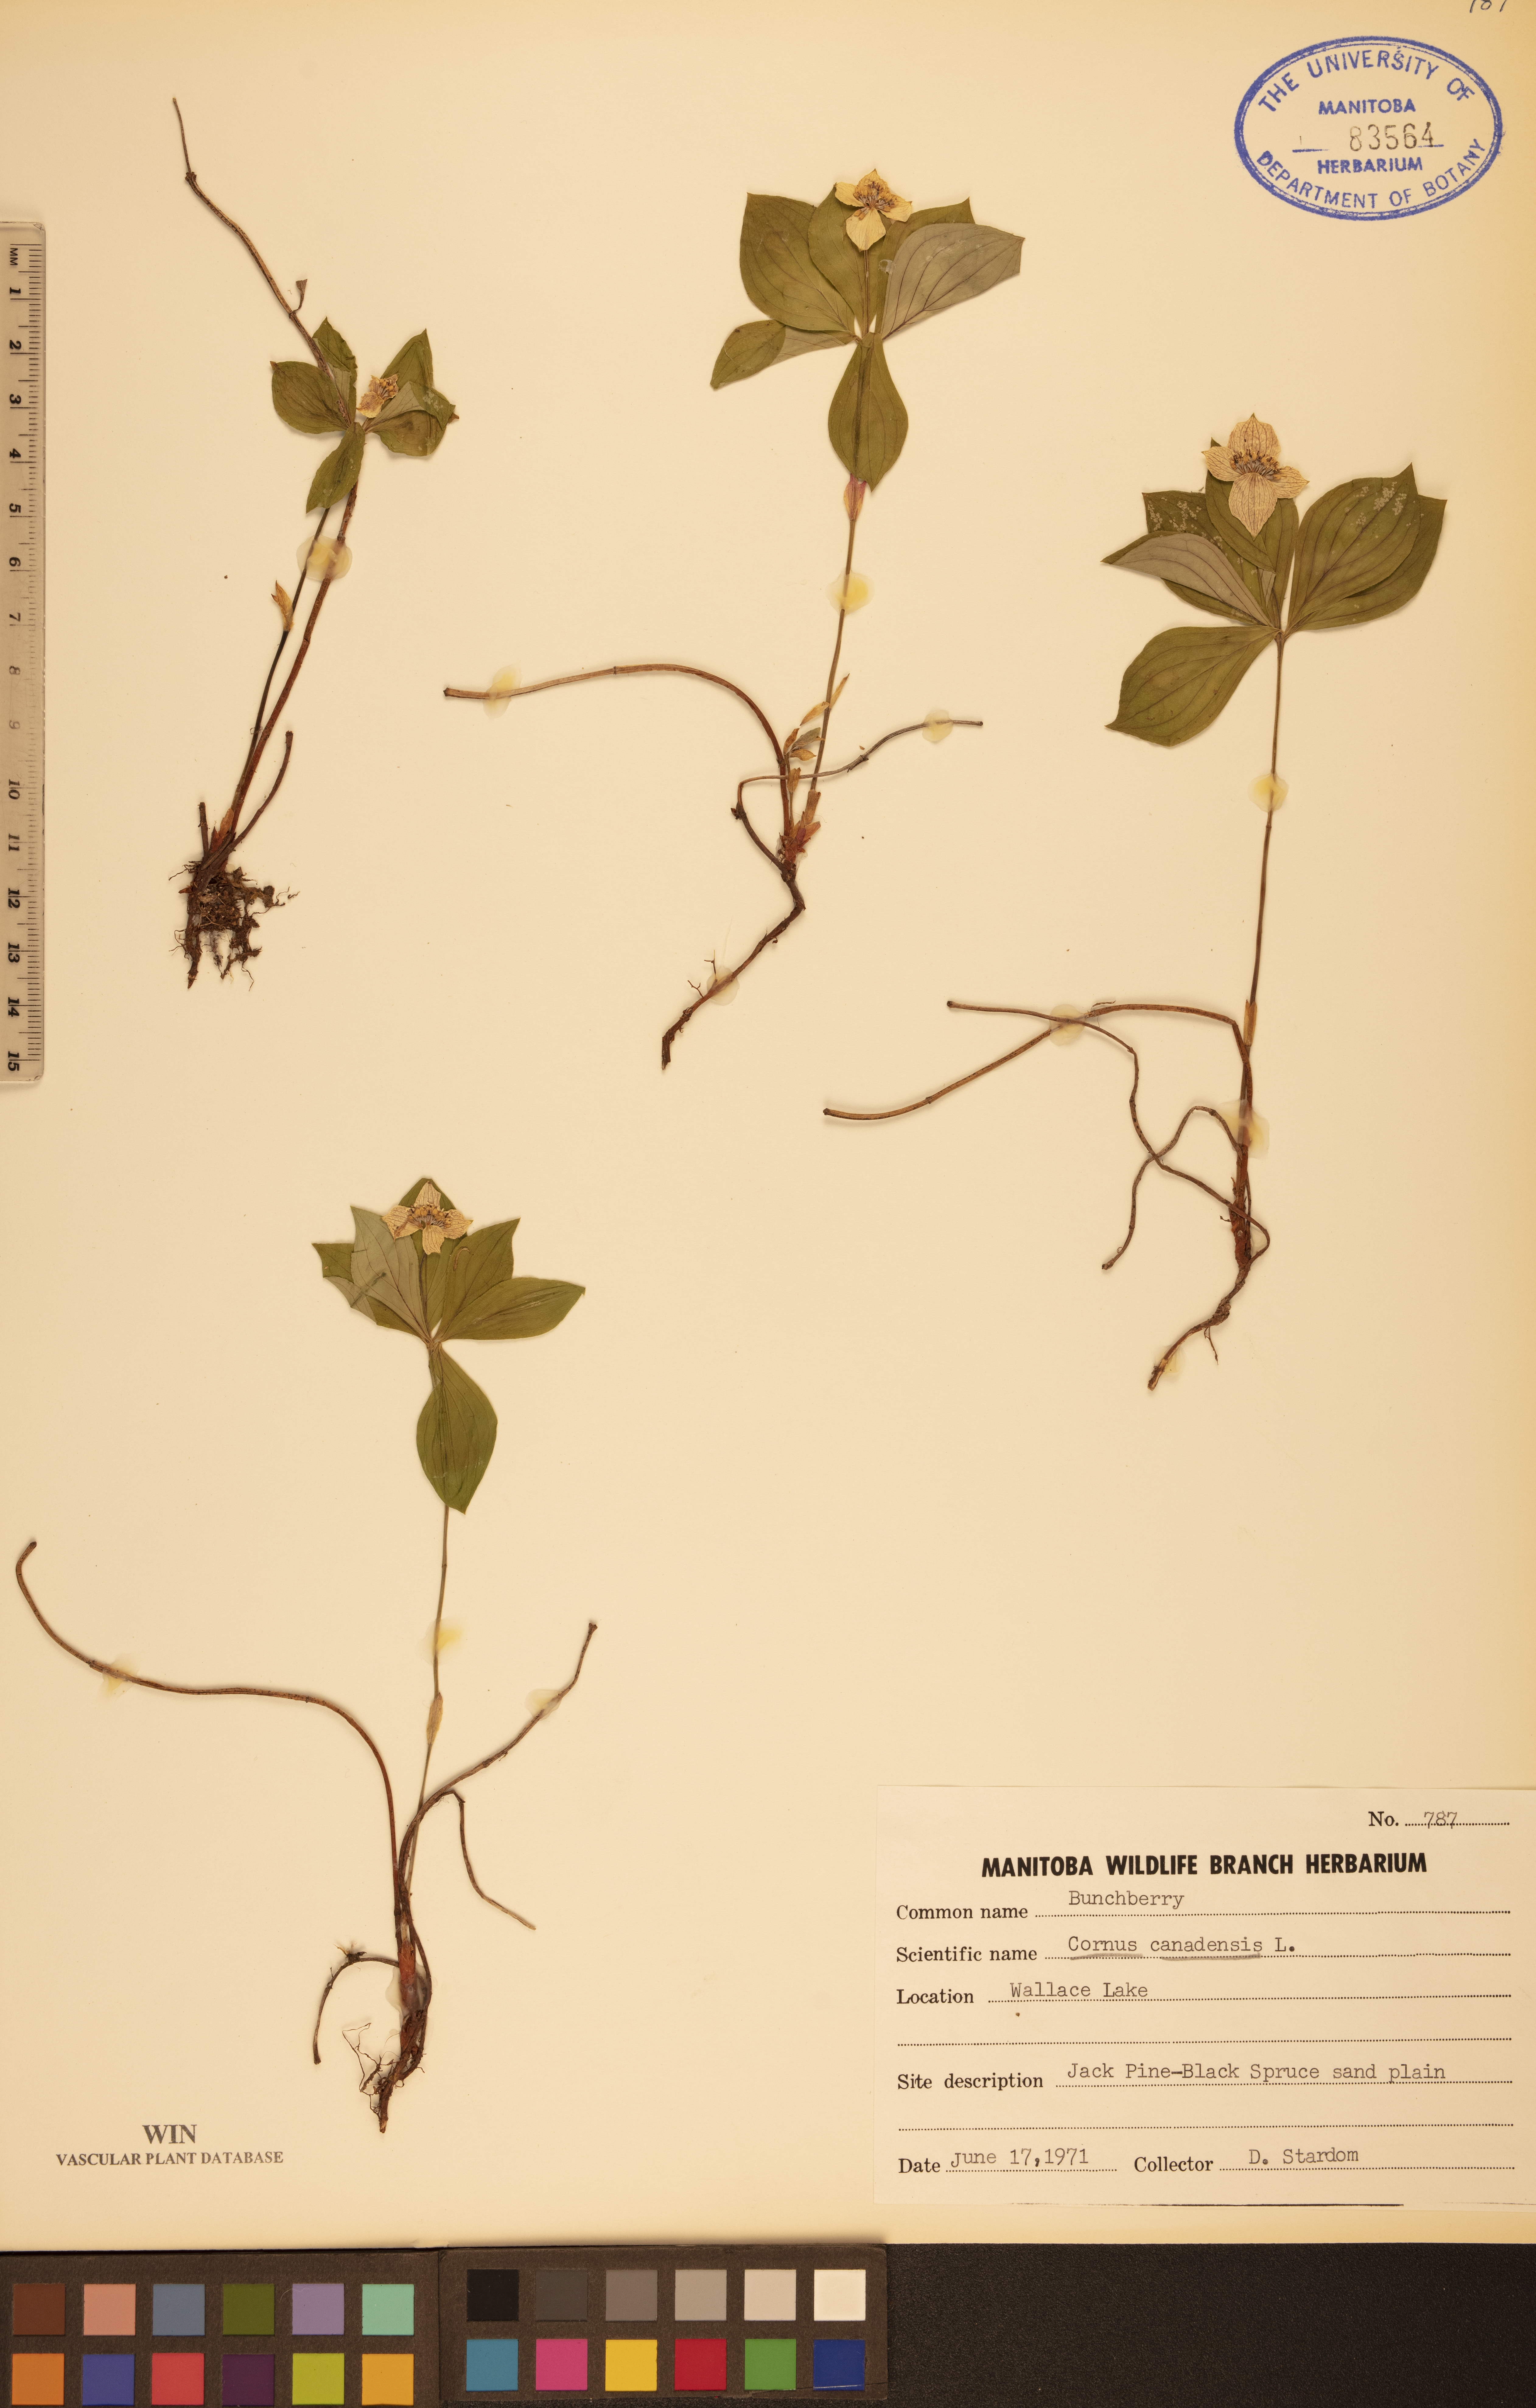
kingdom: Plantae
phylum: Tracheophyta
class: Magnoliopsida
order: Cornales
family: Cornaceae
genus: Cornus
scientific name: Cornus canadensis
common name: Creeping dogwood
